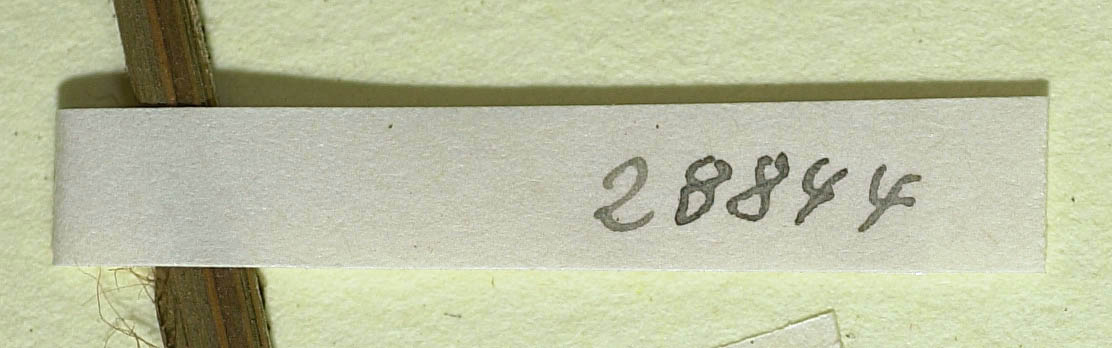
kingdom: Plantae
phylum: Tracheophyta
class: Magnoliopsida
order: Asterales
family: Asteraceae
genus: Hieracium
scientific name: Hieracium subspeciosum
